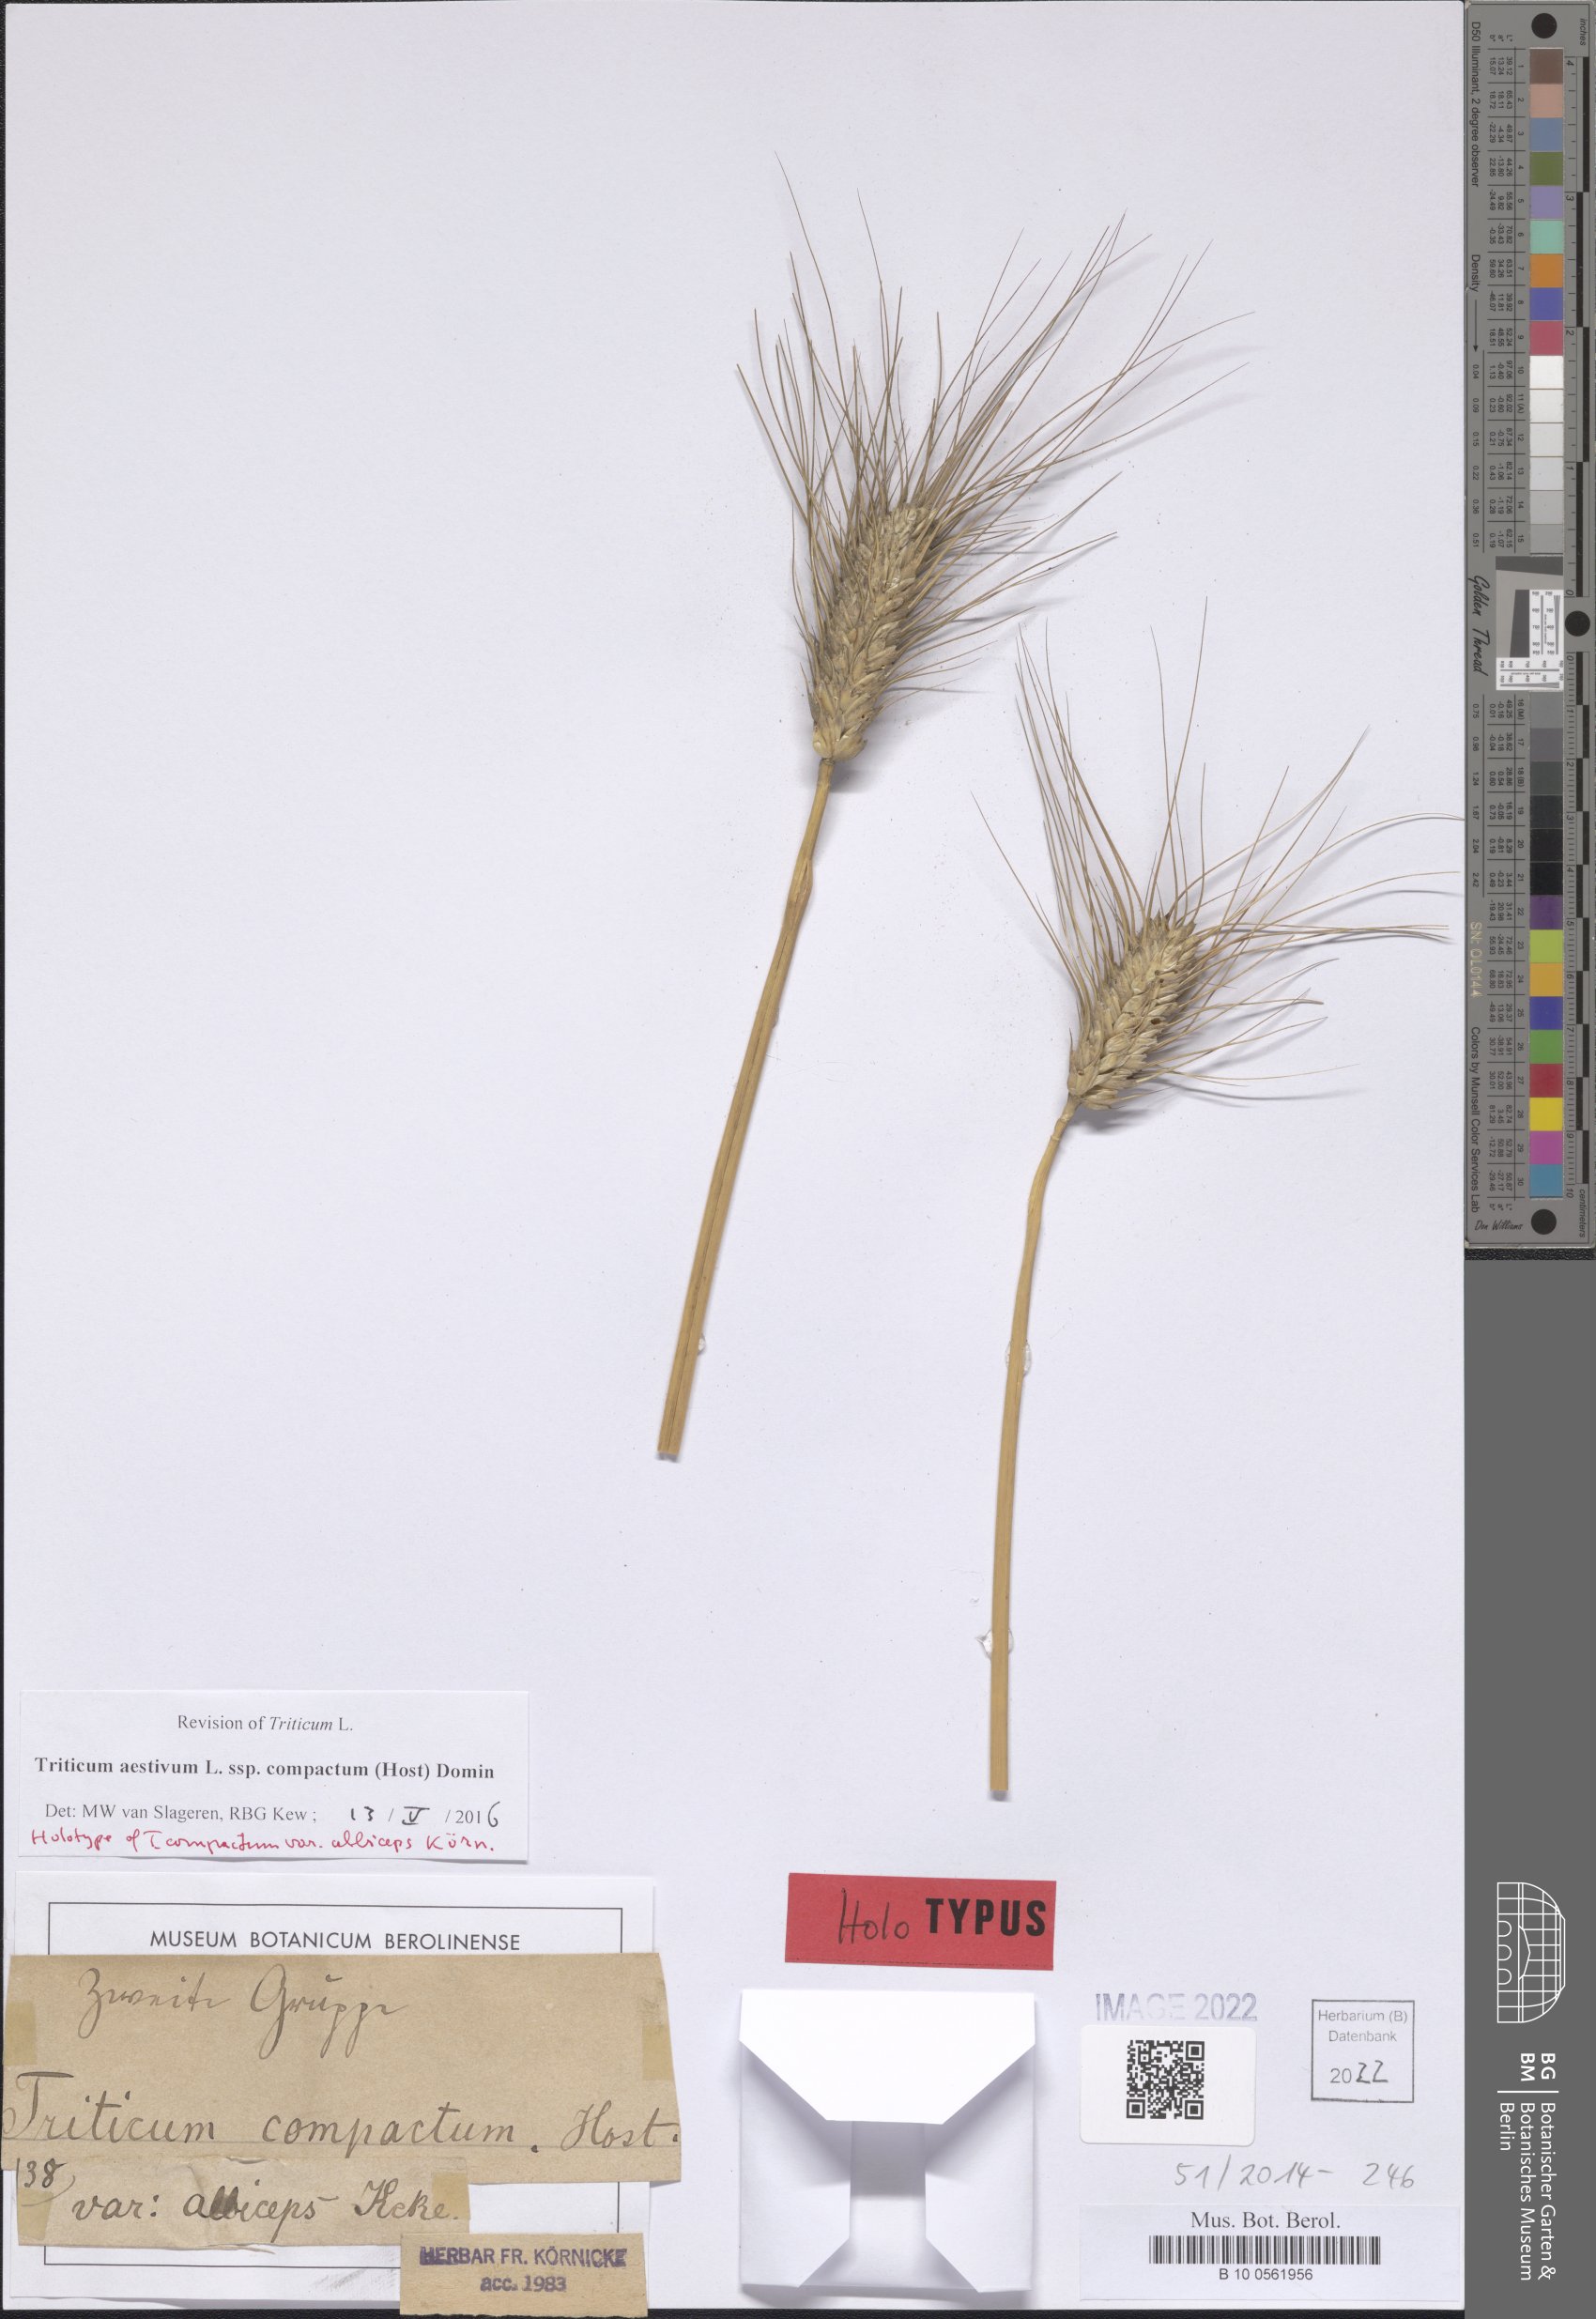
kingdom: Plantae
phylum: Tracheophyta
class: Liliopsida
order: Poales
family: Poaceae
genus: Triticum
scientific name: Triticum aestivum
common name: Common wheat
